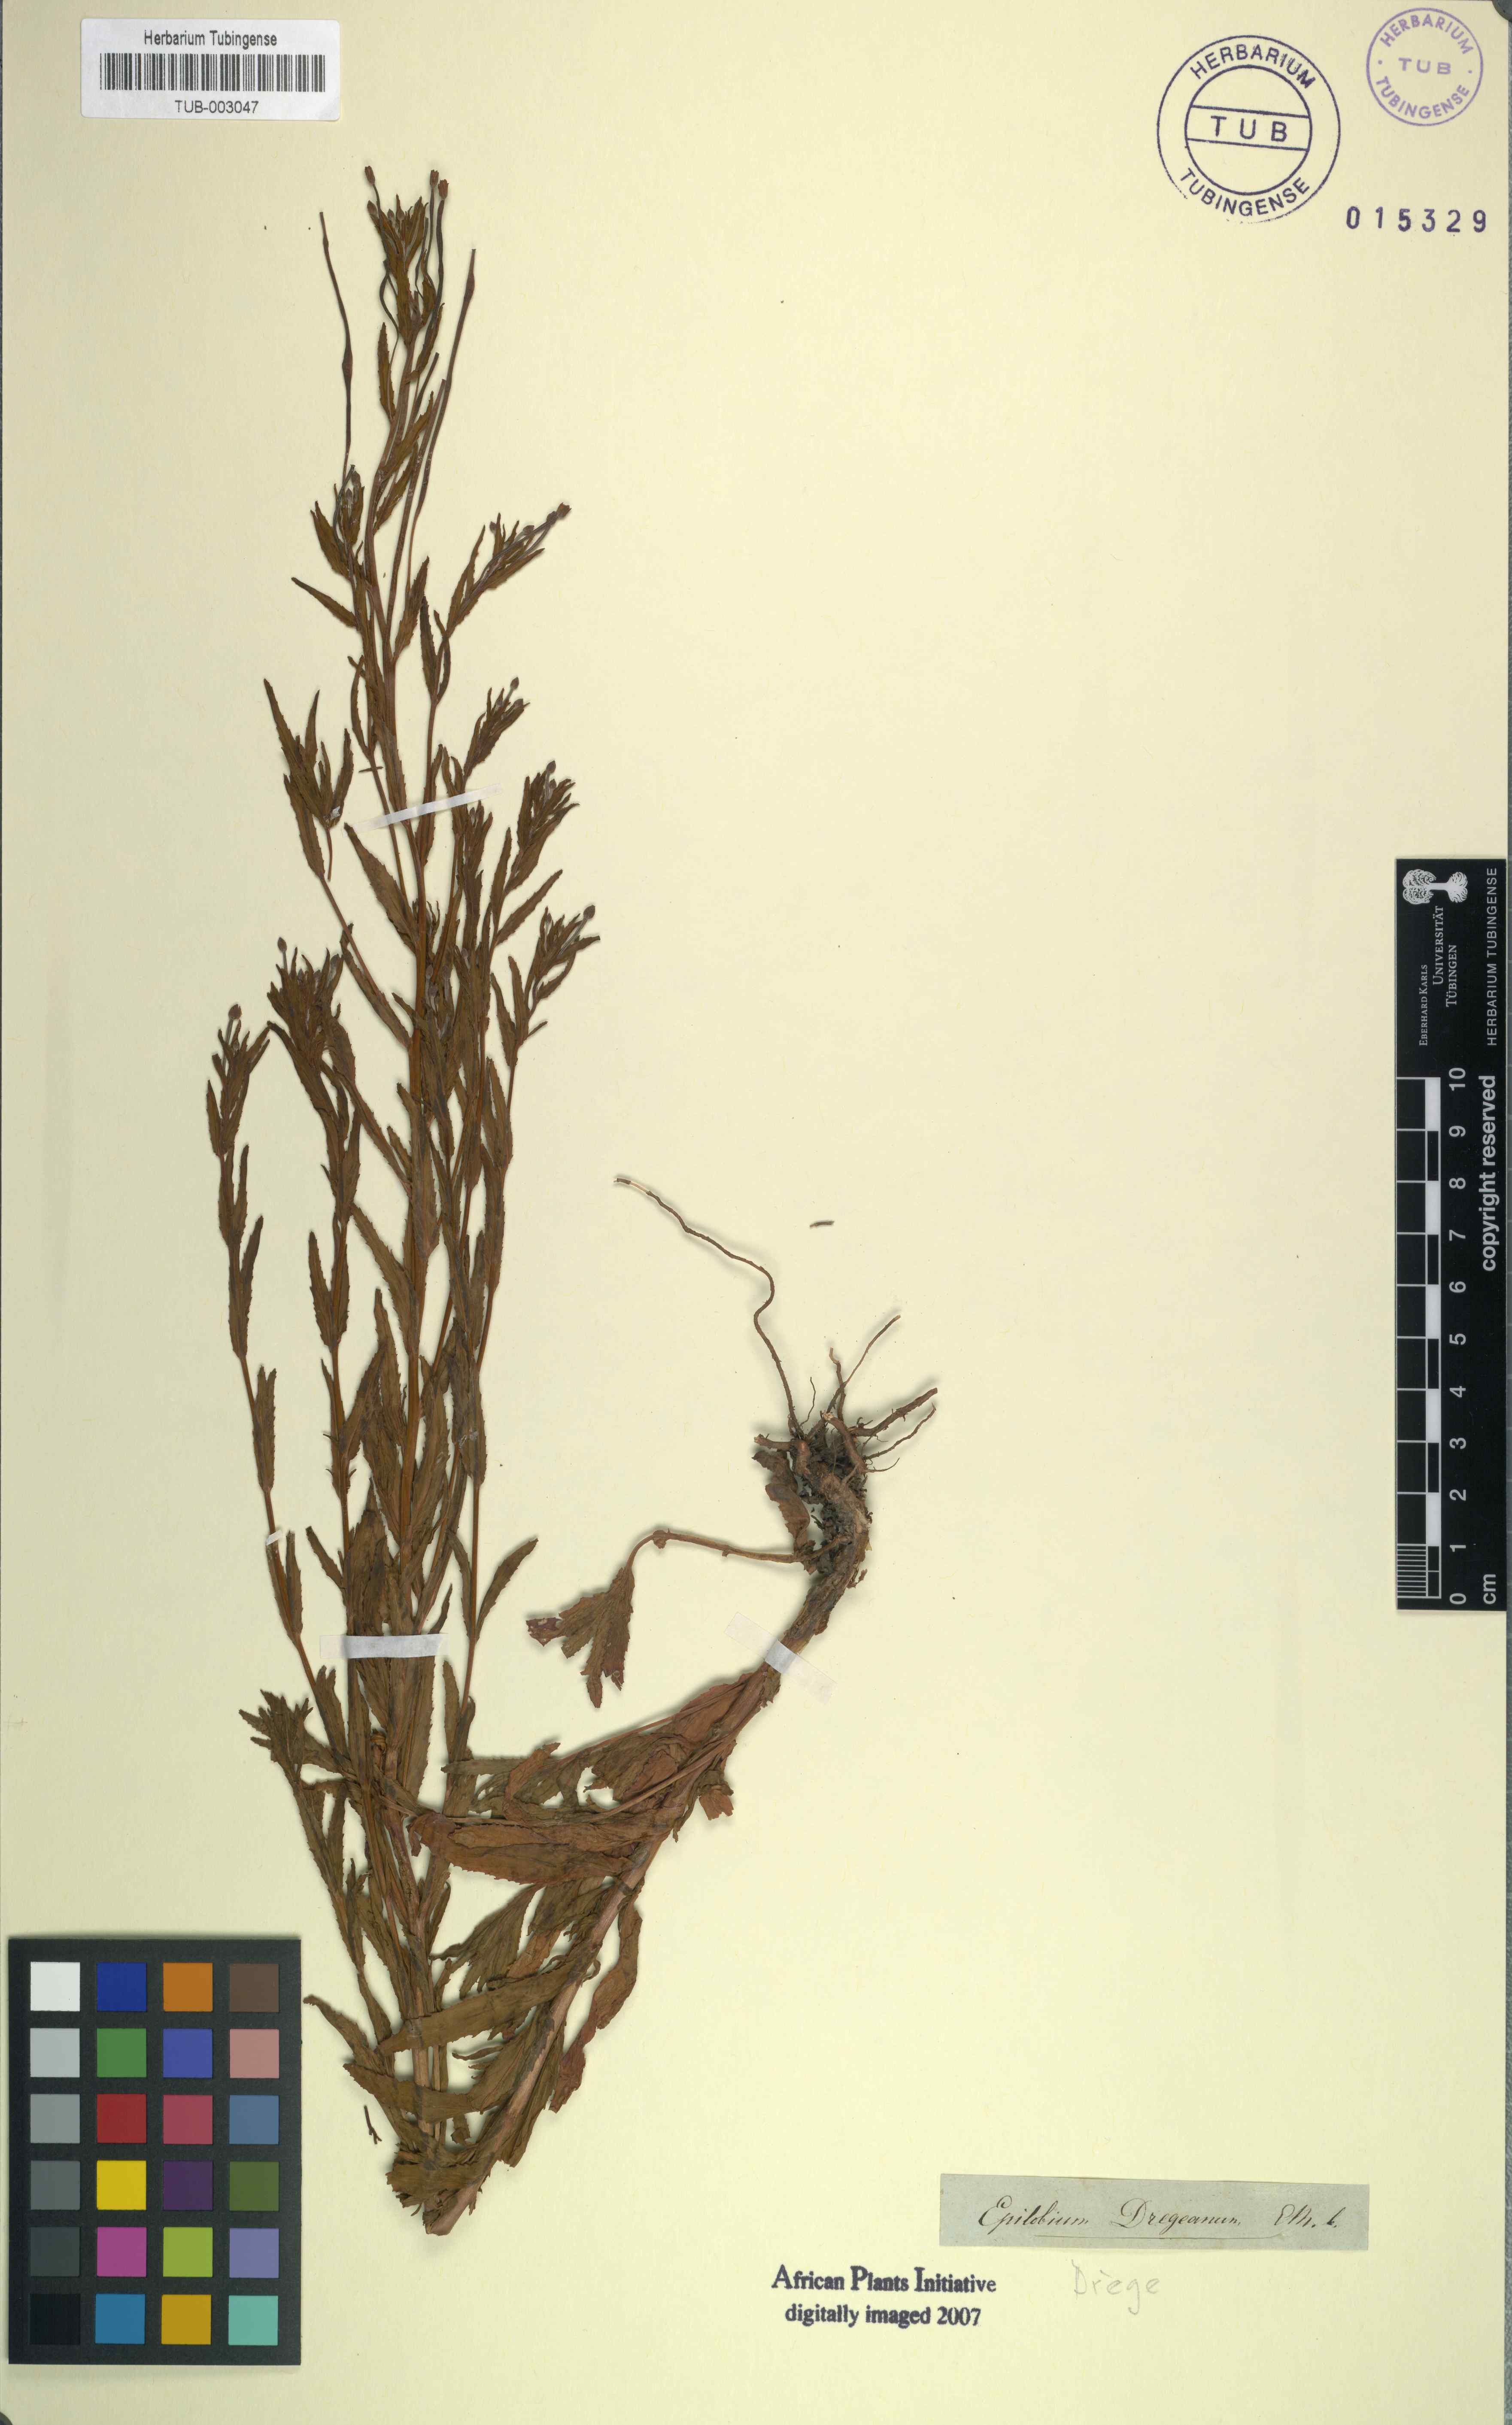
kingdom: Plantae
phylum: Tracheophyta
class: Magnoliopsida
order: Myrtales
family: Onagraceae
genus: Epilobium
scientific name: Epilobium tetragonum
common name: Square-stemmed willowherb
